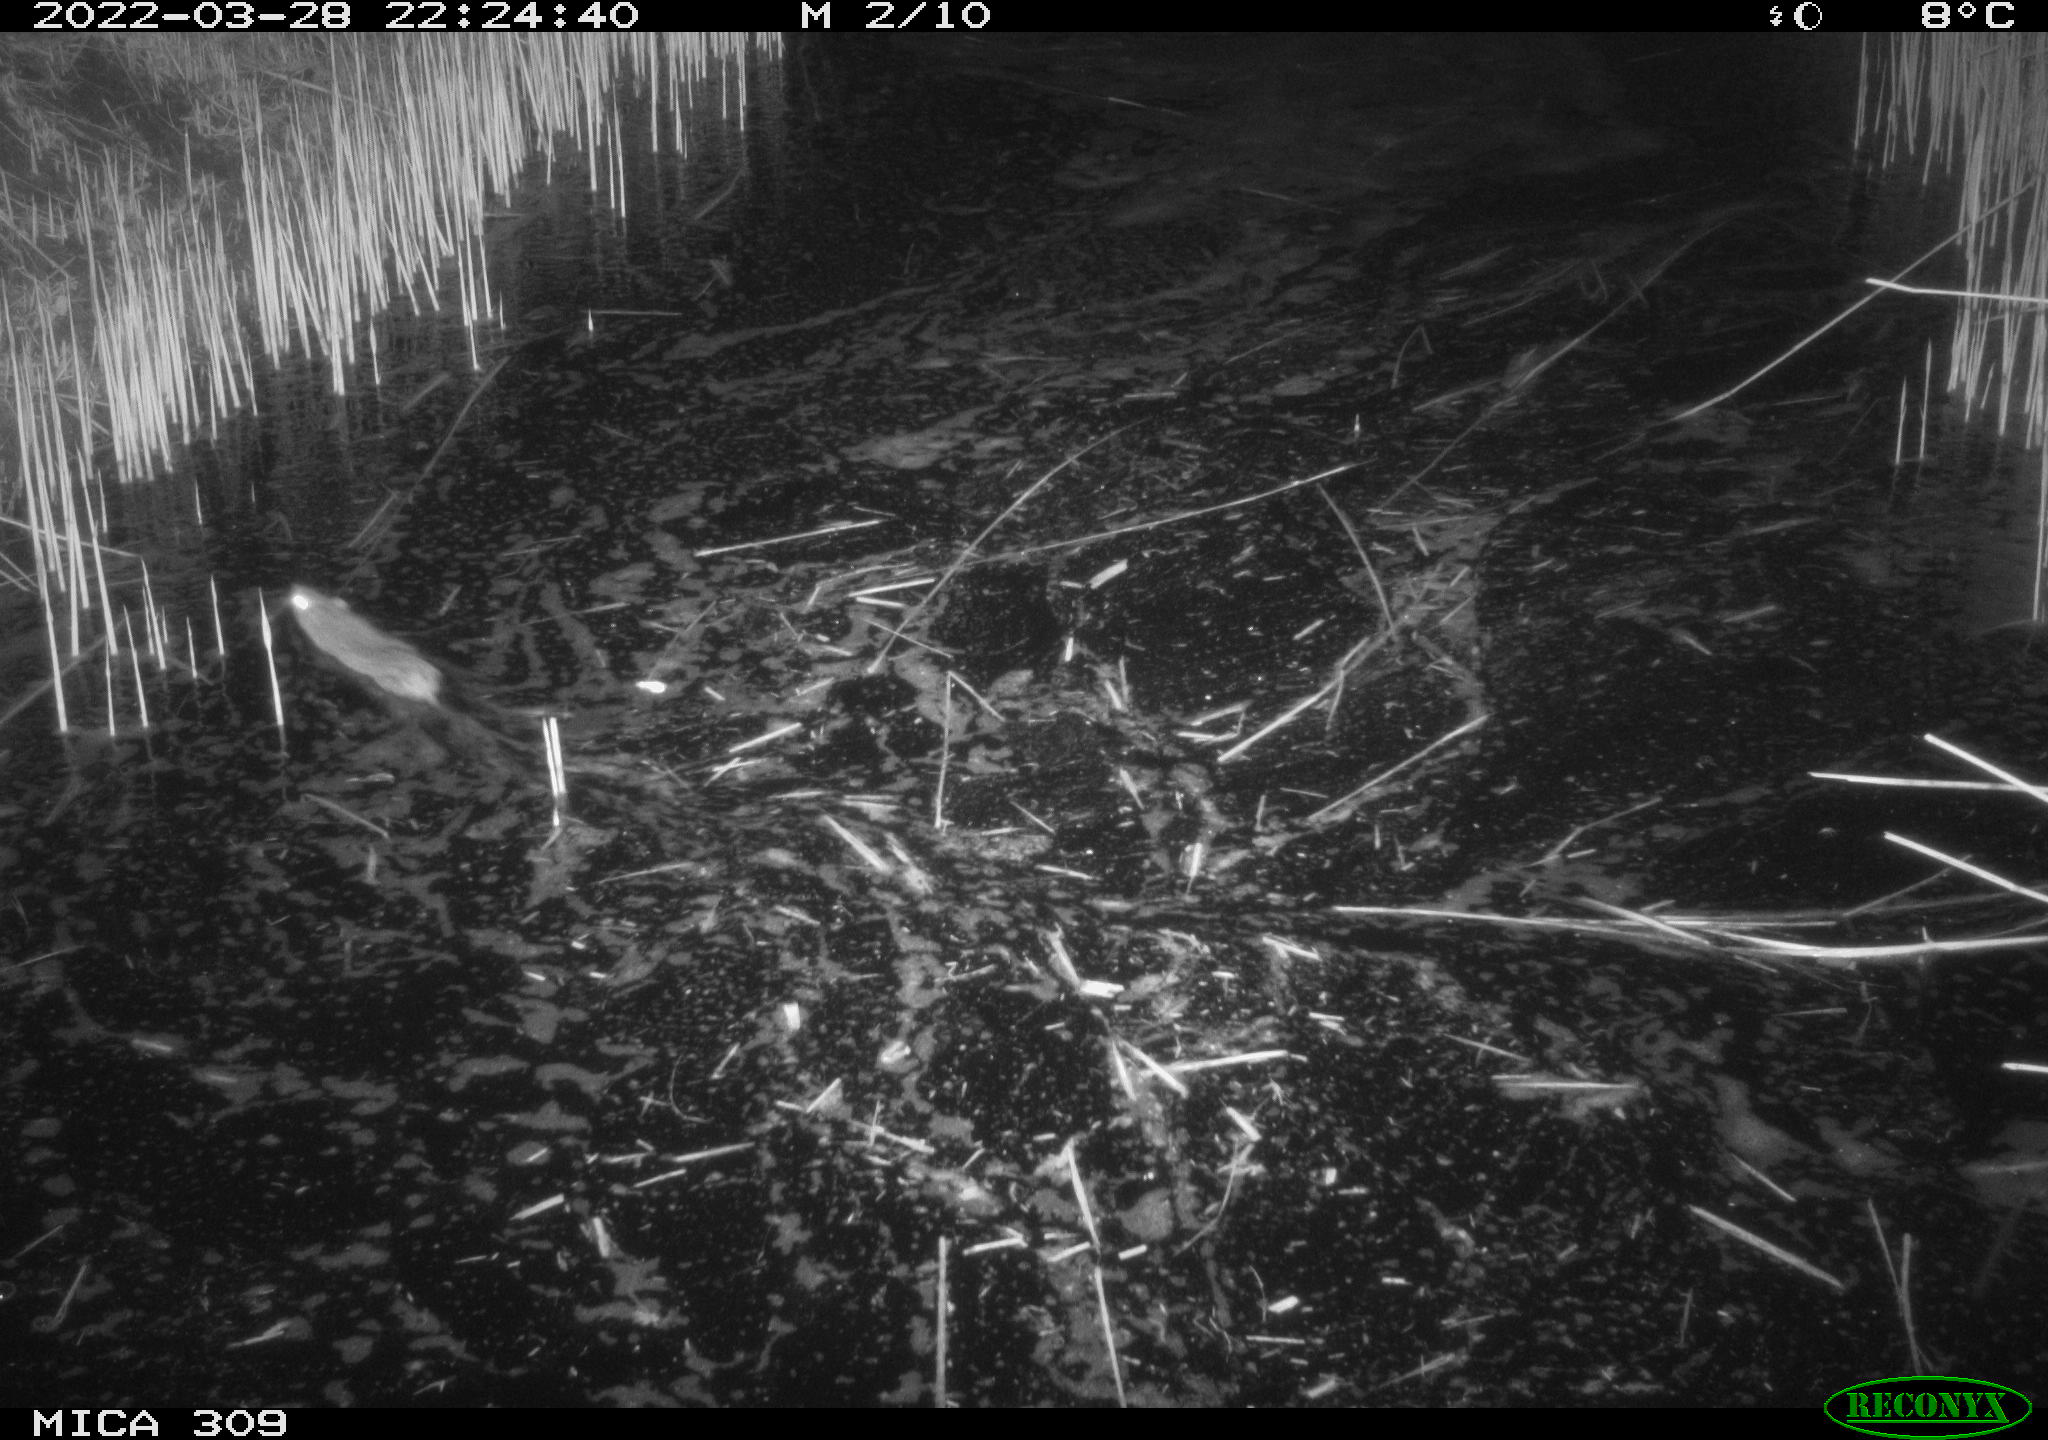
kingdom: Animalia
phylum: Chordata
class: Mammalia
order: Rodentia
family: Muridae
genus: Rattus
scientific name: Rattus norvegicus
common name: Brown rat
